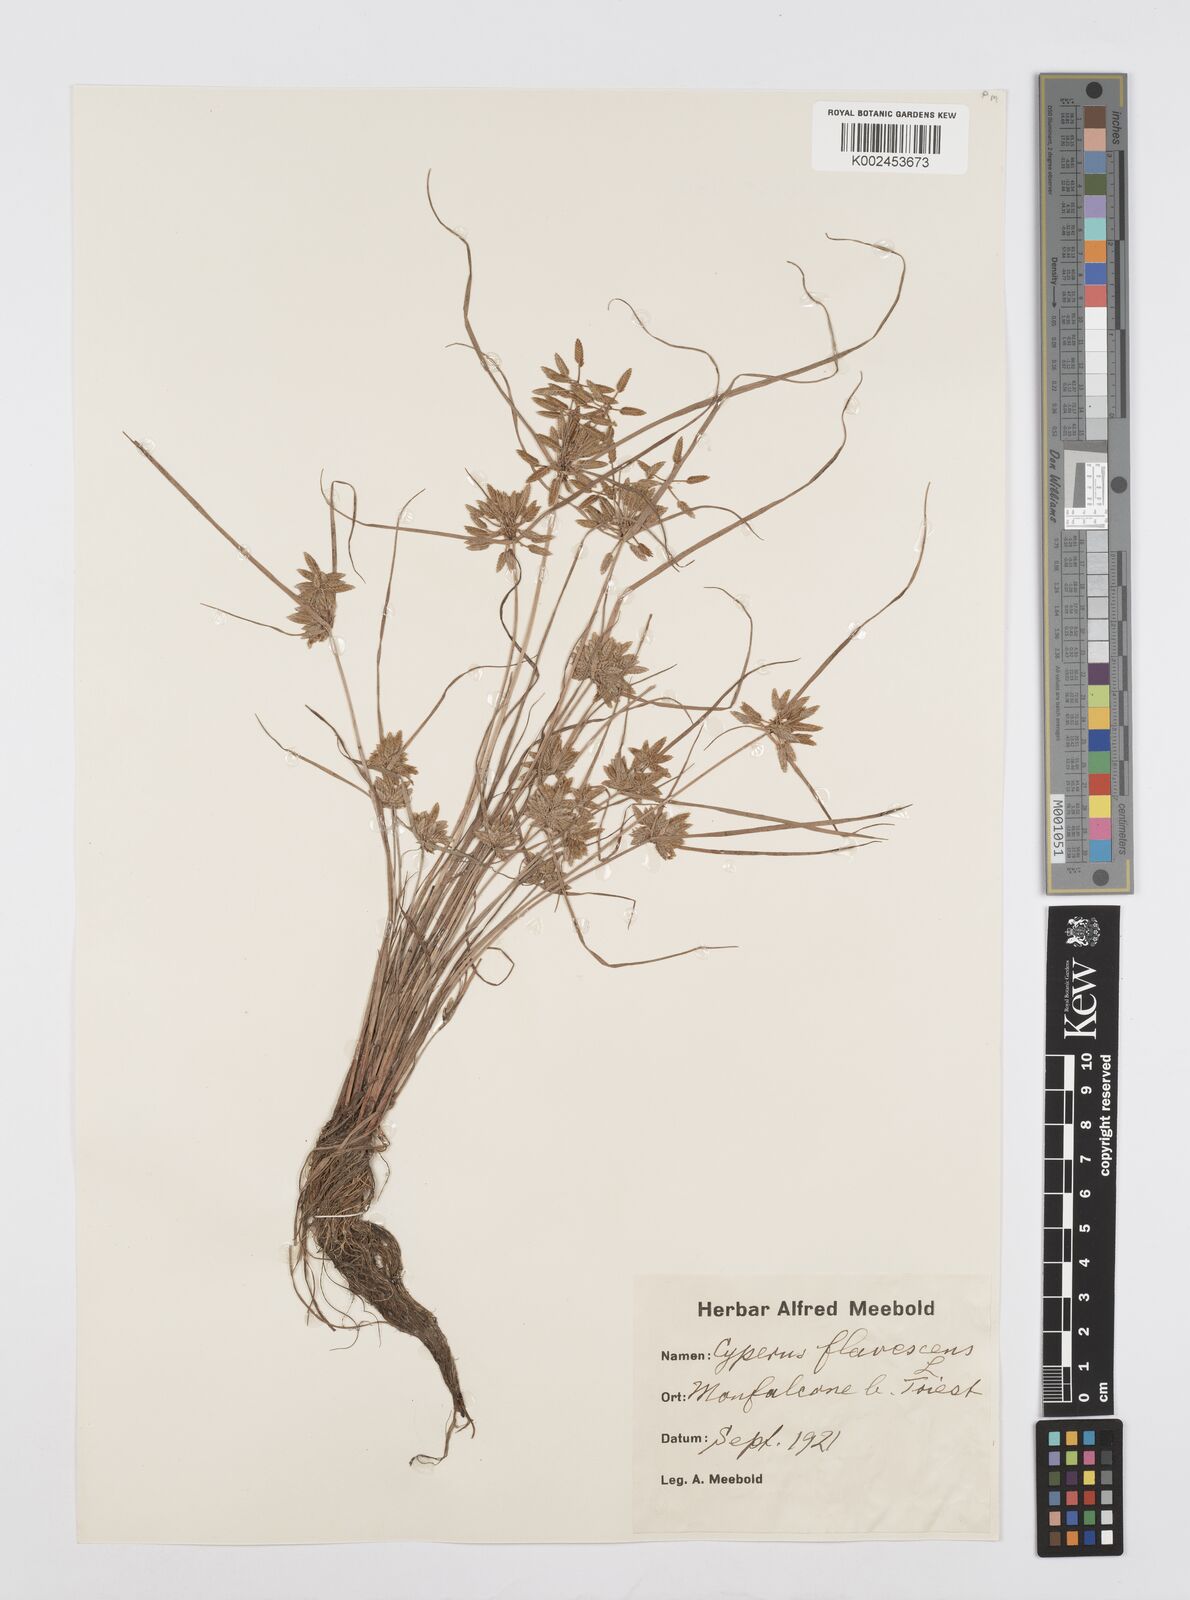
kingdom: Plantae
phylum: Tracheophyta
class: Liliopsida
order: Poales
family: Cyperaceae
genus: Cyperus
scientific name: Cyperus flavescens
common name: Yellow galingale
